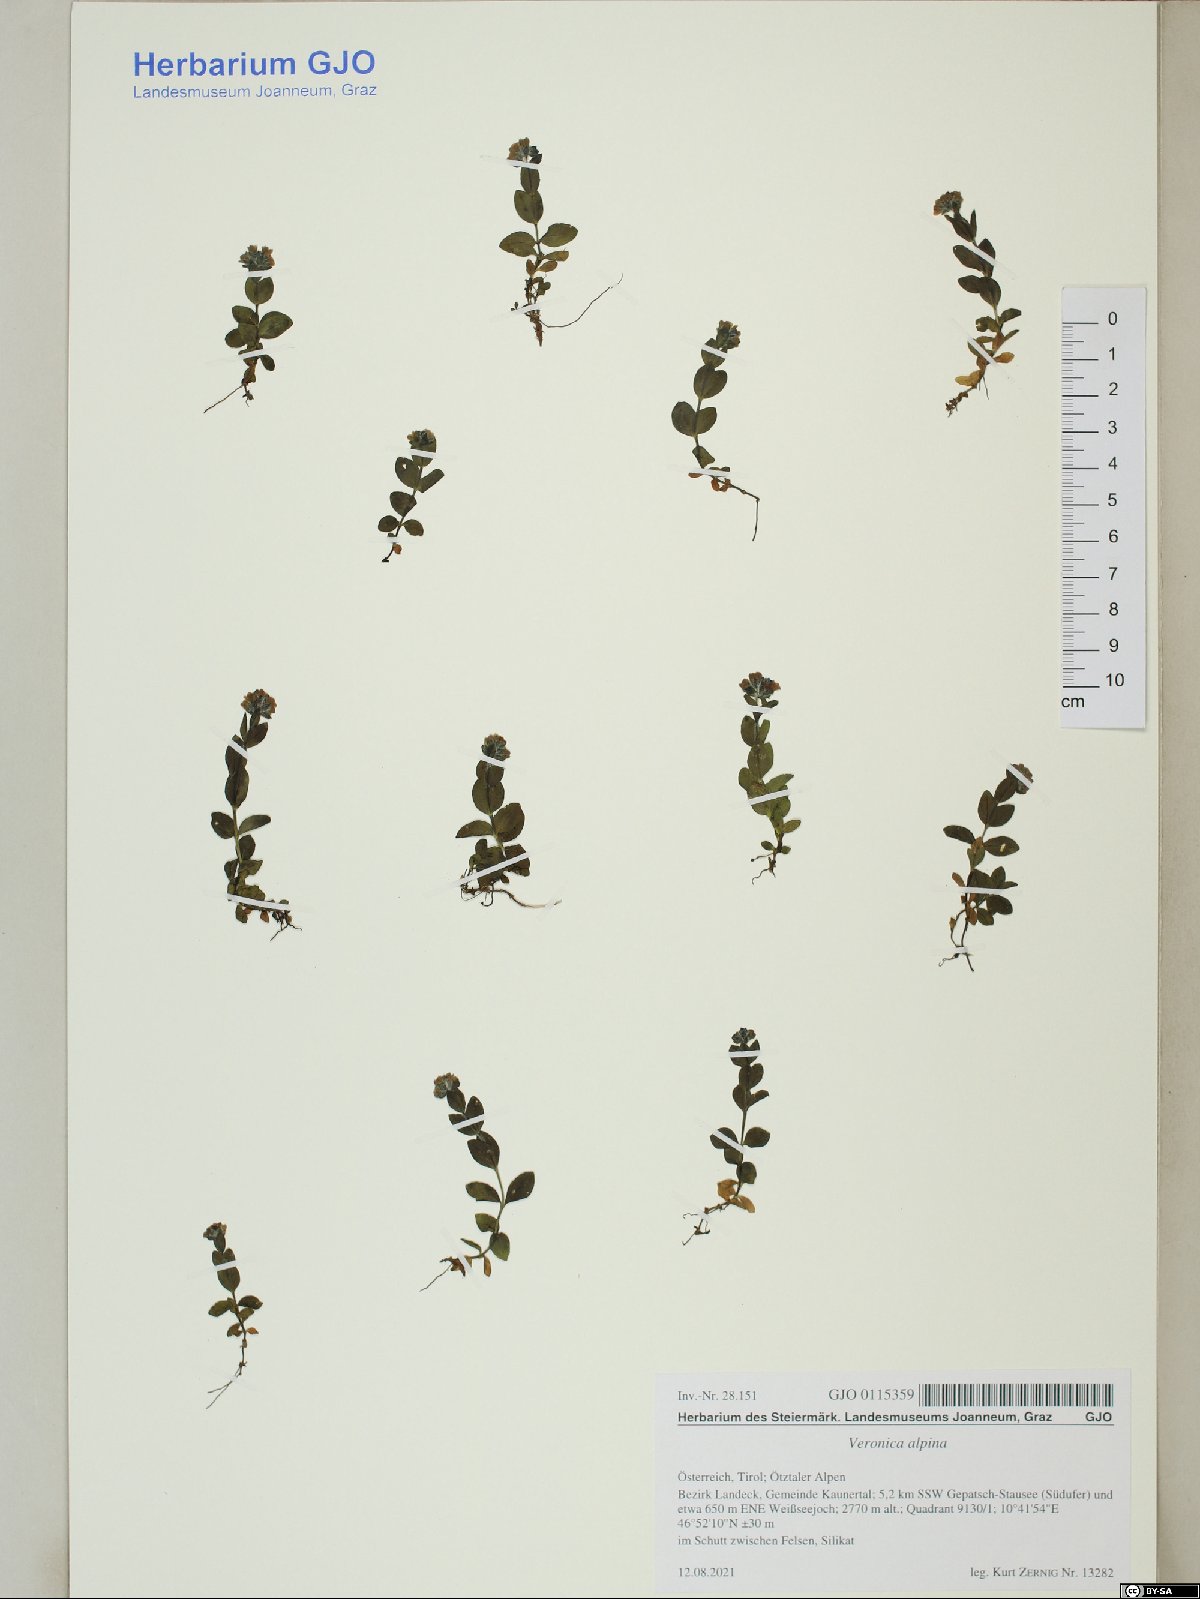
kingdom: Plantae
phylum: Tracheophyta
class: Magnoliopsida
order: Lamiales
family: Plantaginaceae
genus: Veronica
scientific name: Veronica alpina
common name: Alpine speedwell
